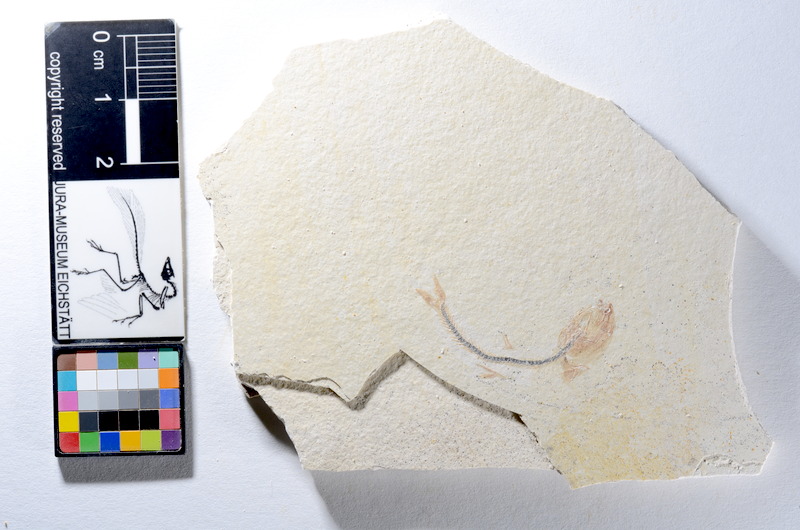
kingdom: Animalia
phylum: Chordata
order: Salmoniformes
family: Orthogonikleithridae
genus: Orthogonikleithrus
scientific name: Orthogonikleithrus hoelli
